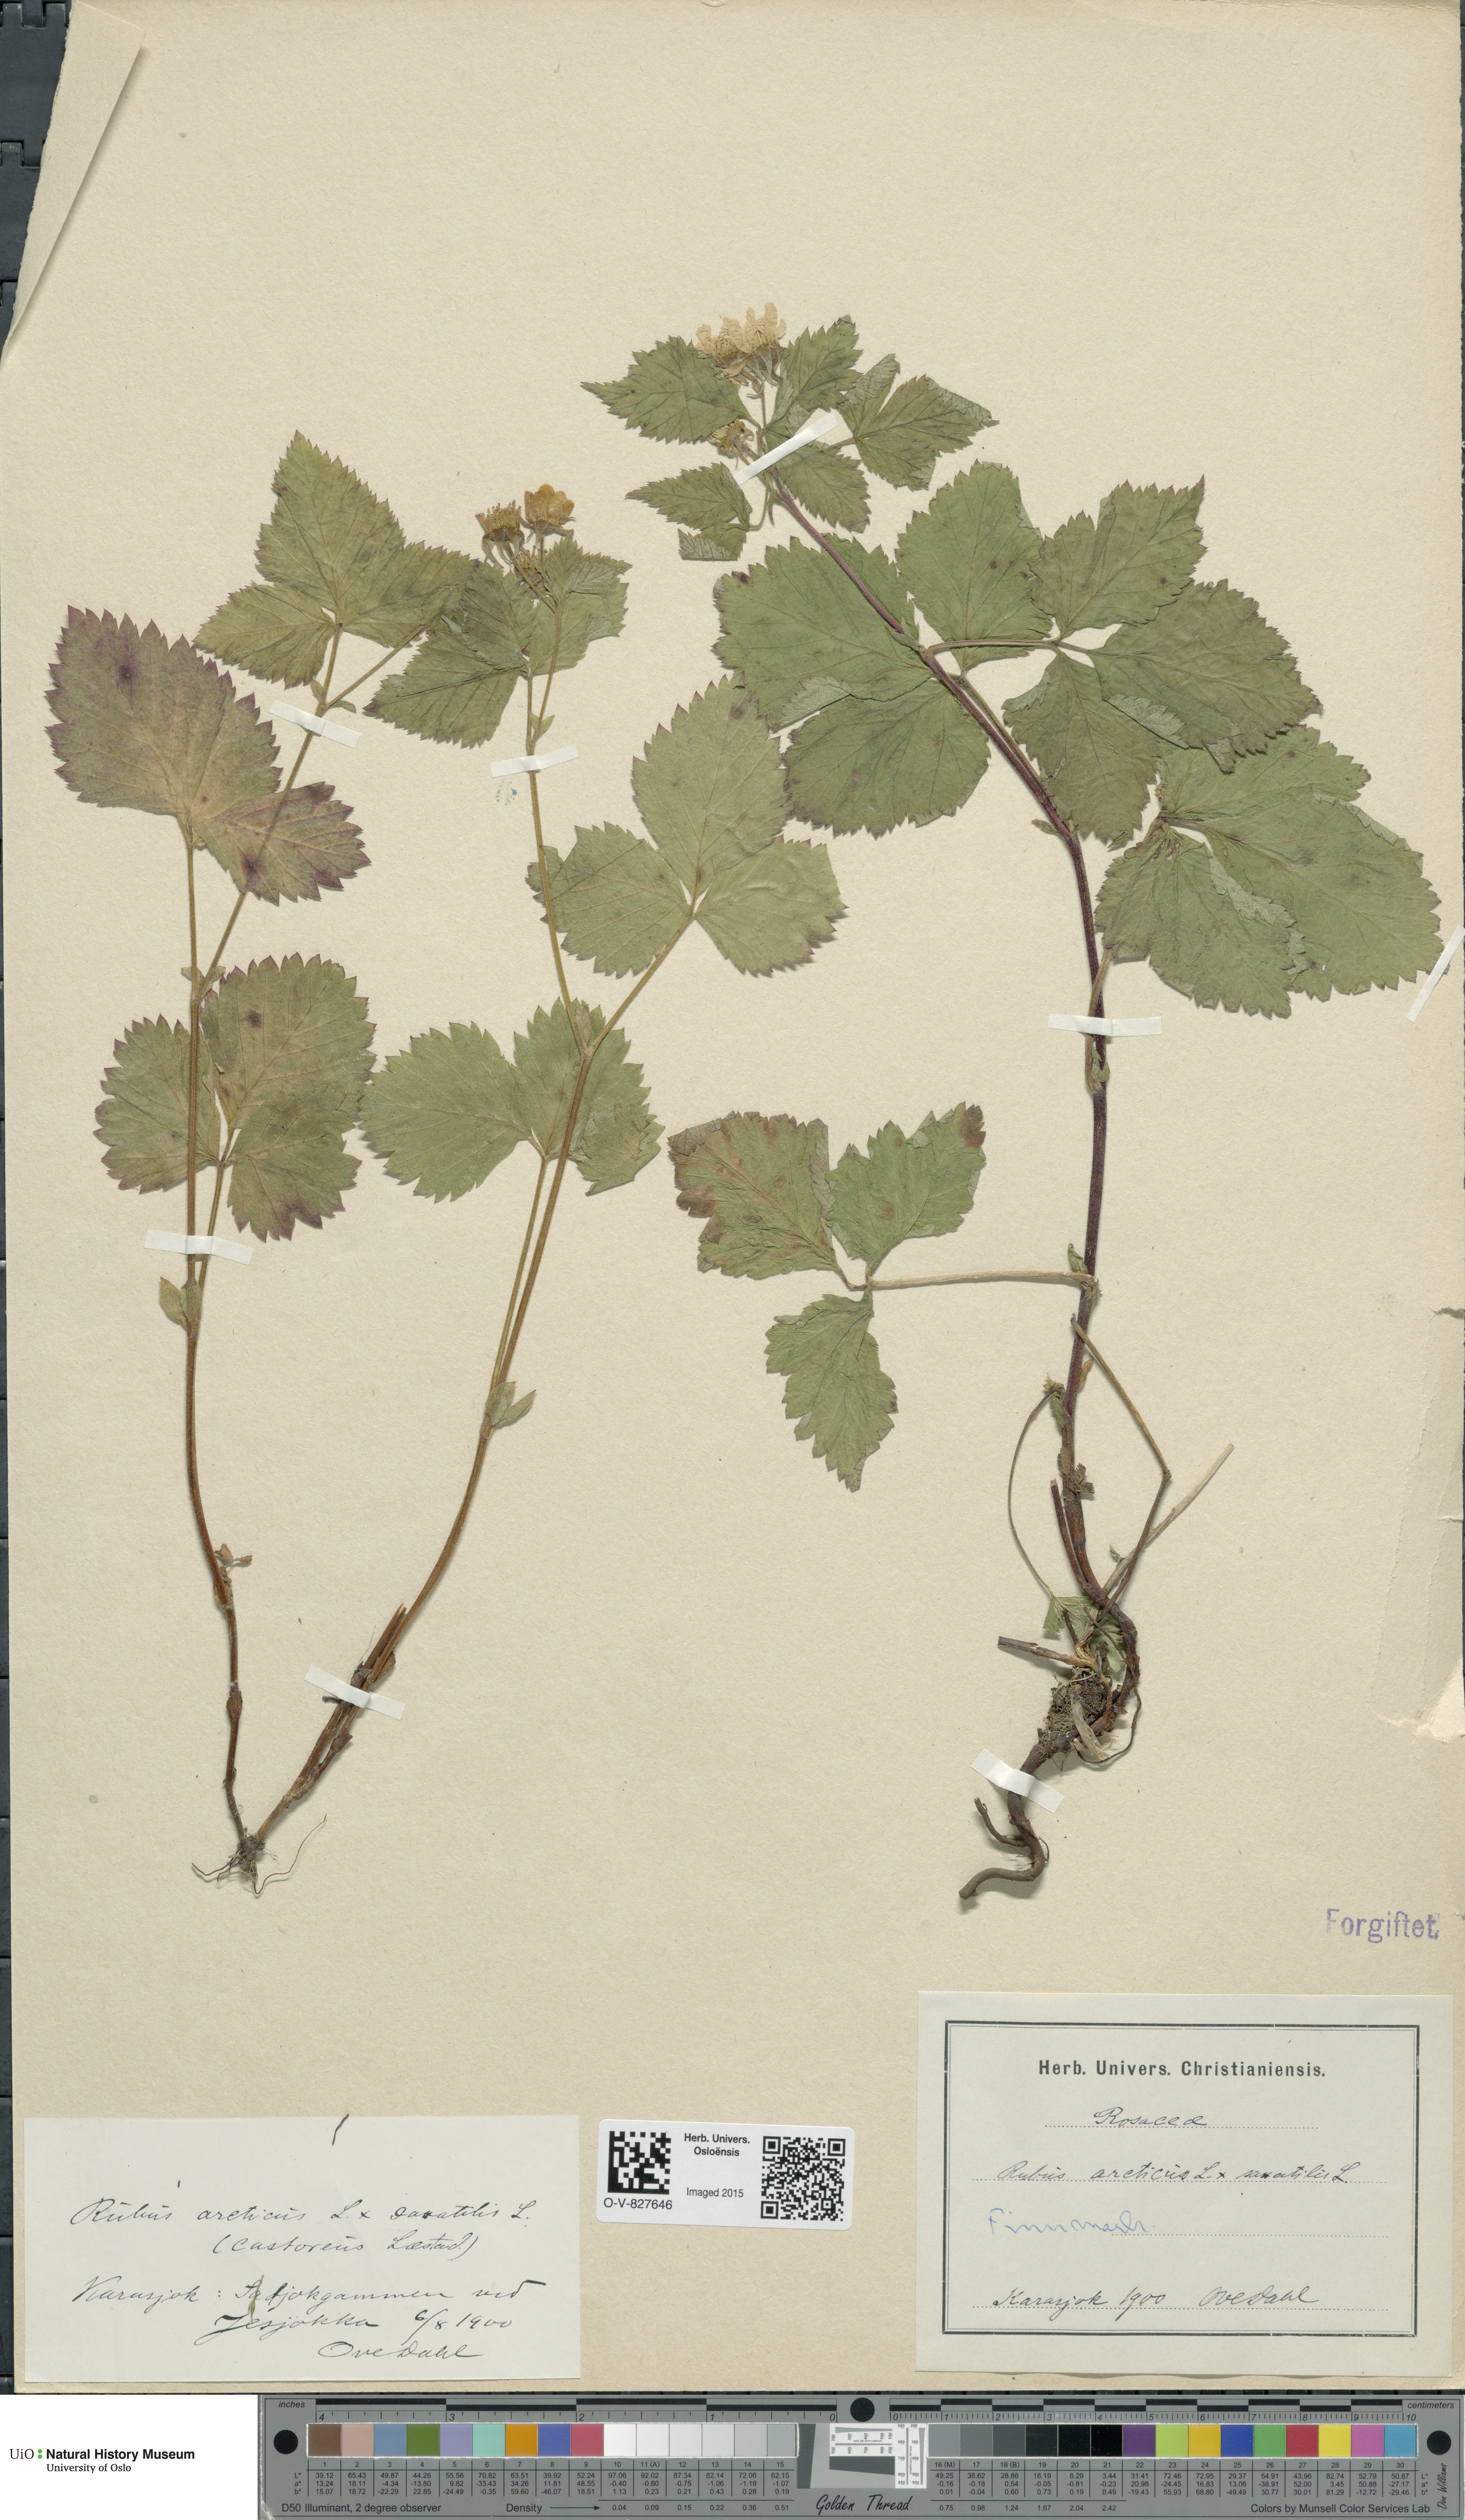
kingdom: Plantae
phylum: Tracheophyta
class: Magnoliopsida
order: Rosales
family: Rosaceae
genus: Rubus
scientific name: Rubus
